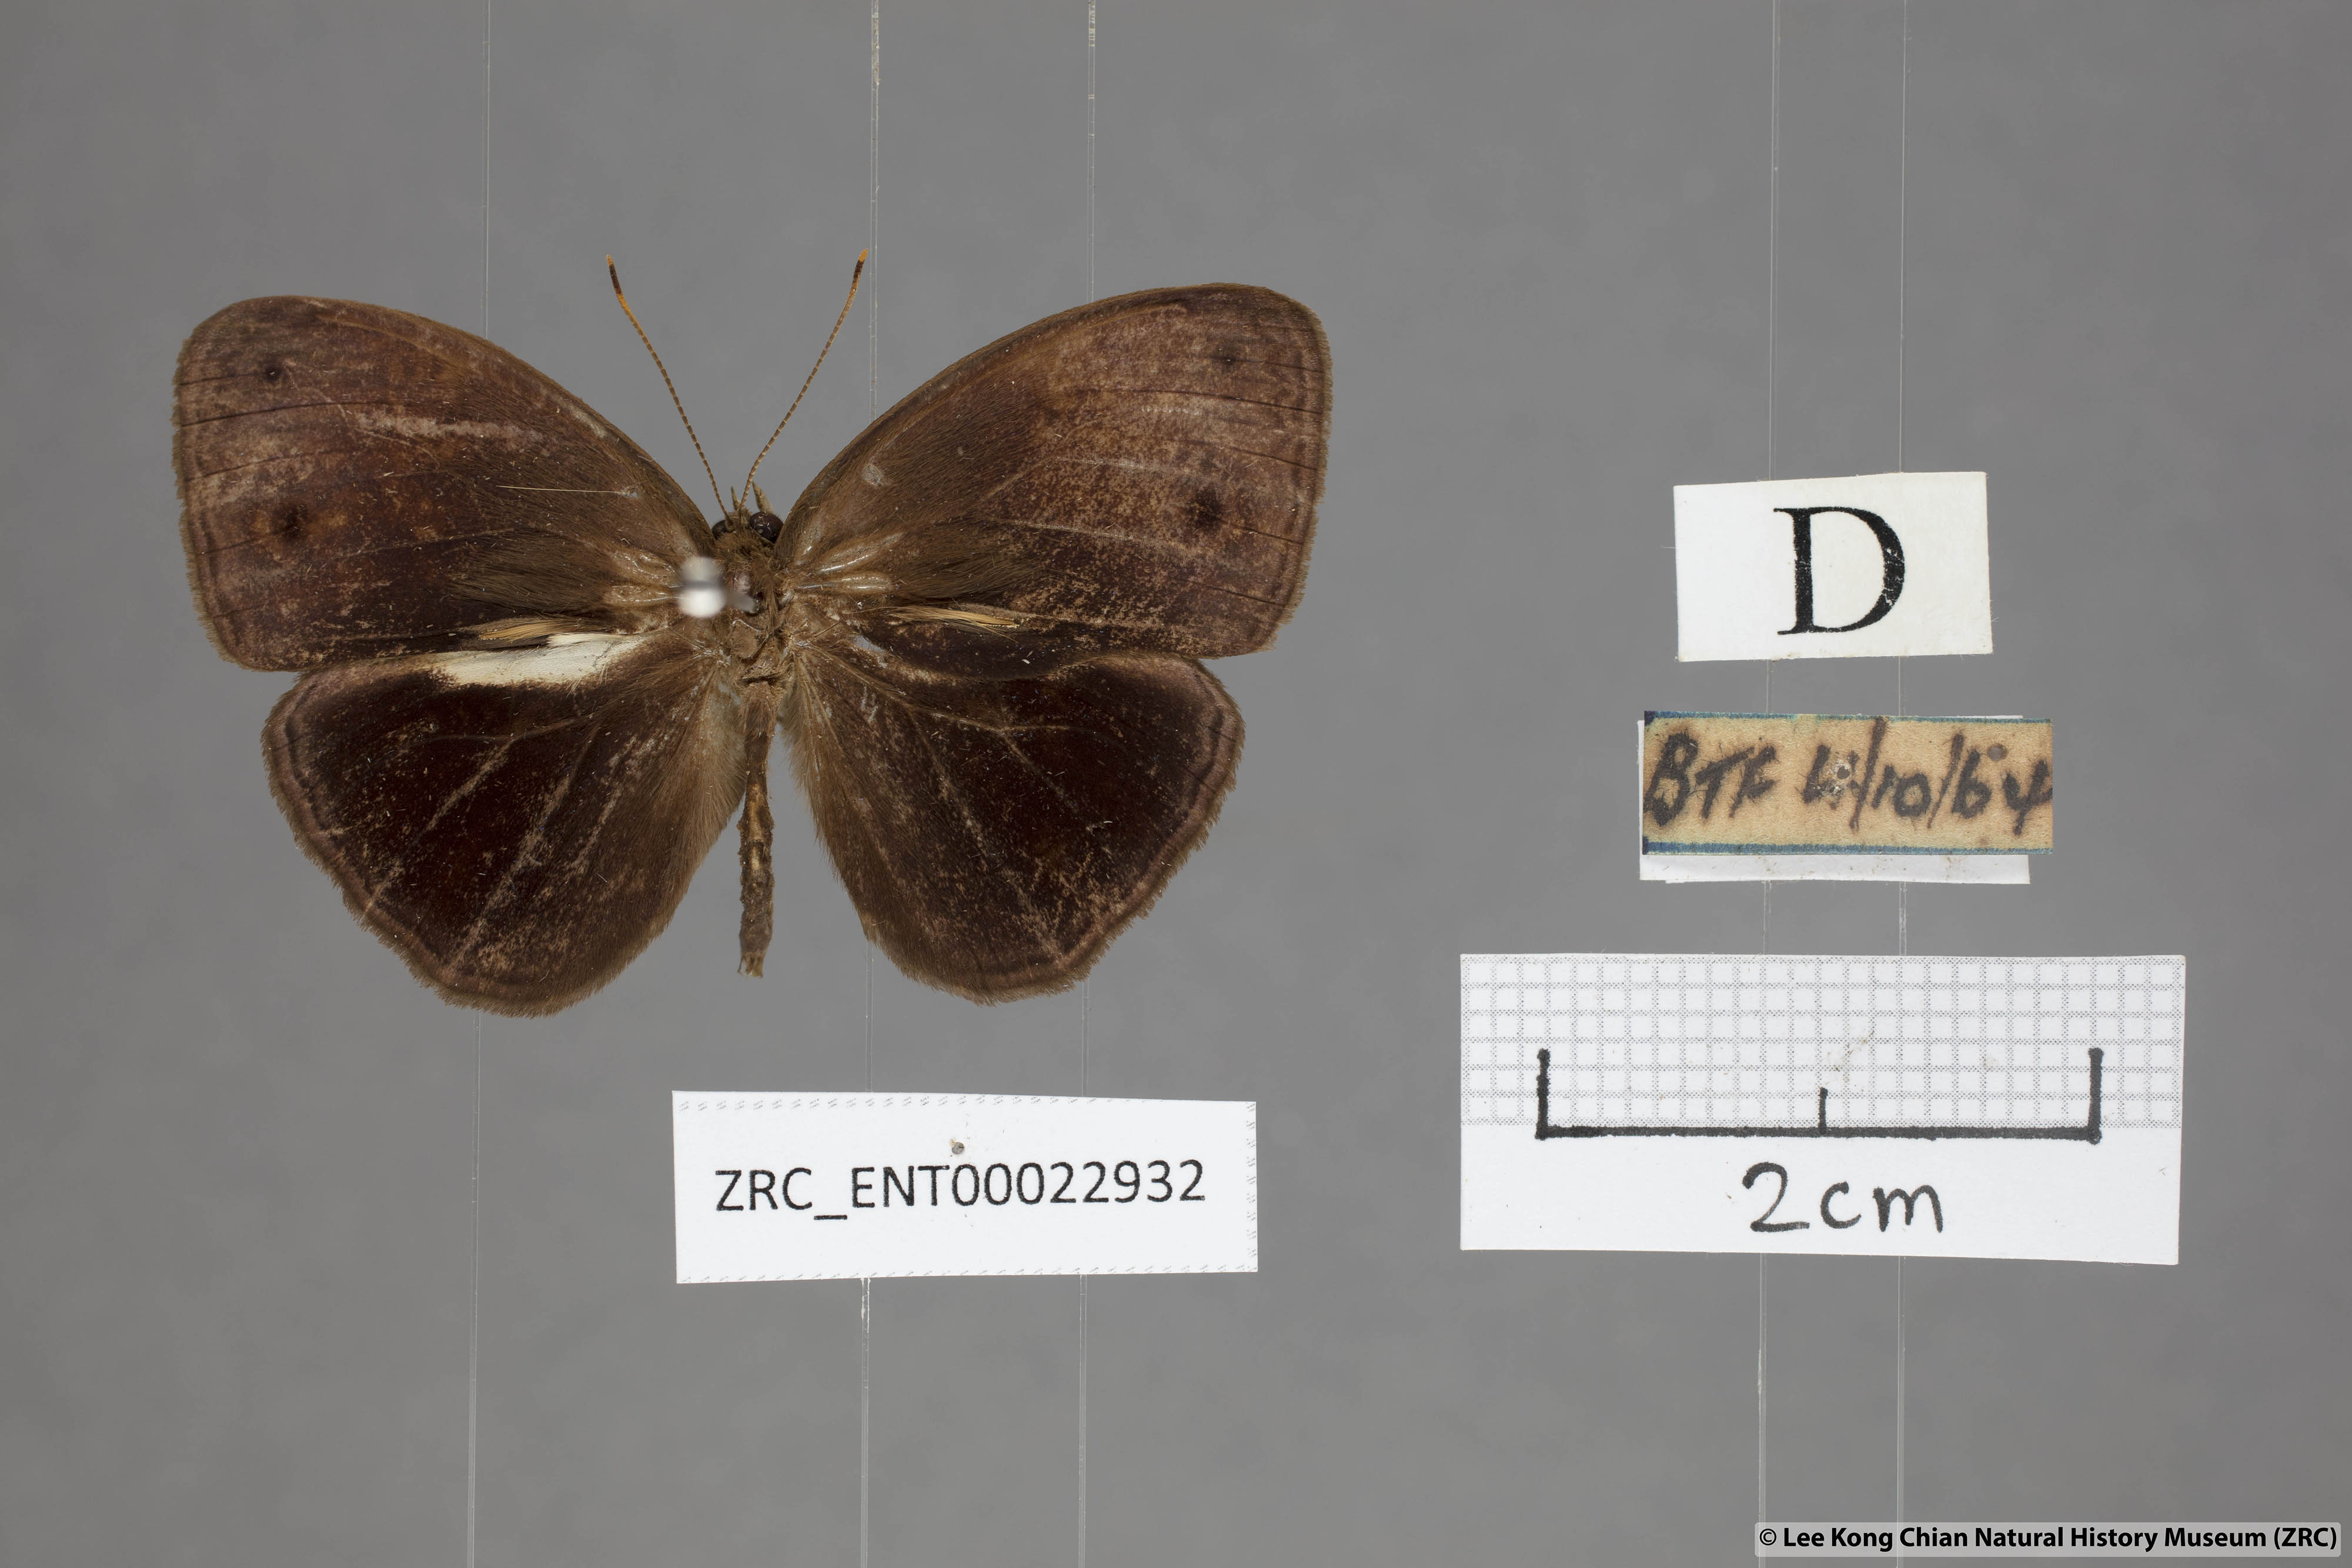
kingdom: Animalia
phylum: Arthropoda
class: Insecta
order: Lepidoptera
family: Nymphalidae
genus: Mycalesis
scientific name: Mycalesis maianeas
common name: Bandless bushbrown
